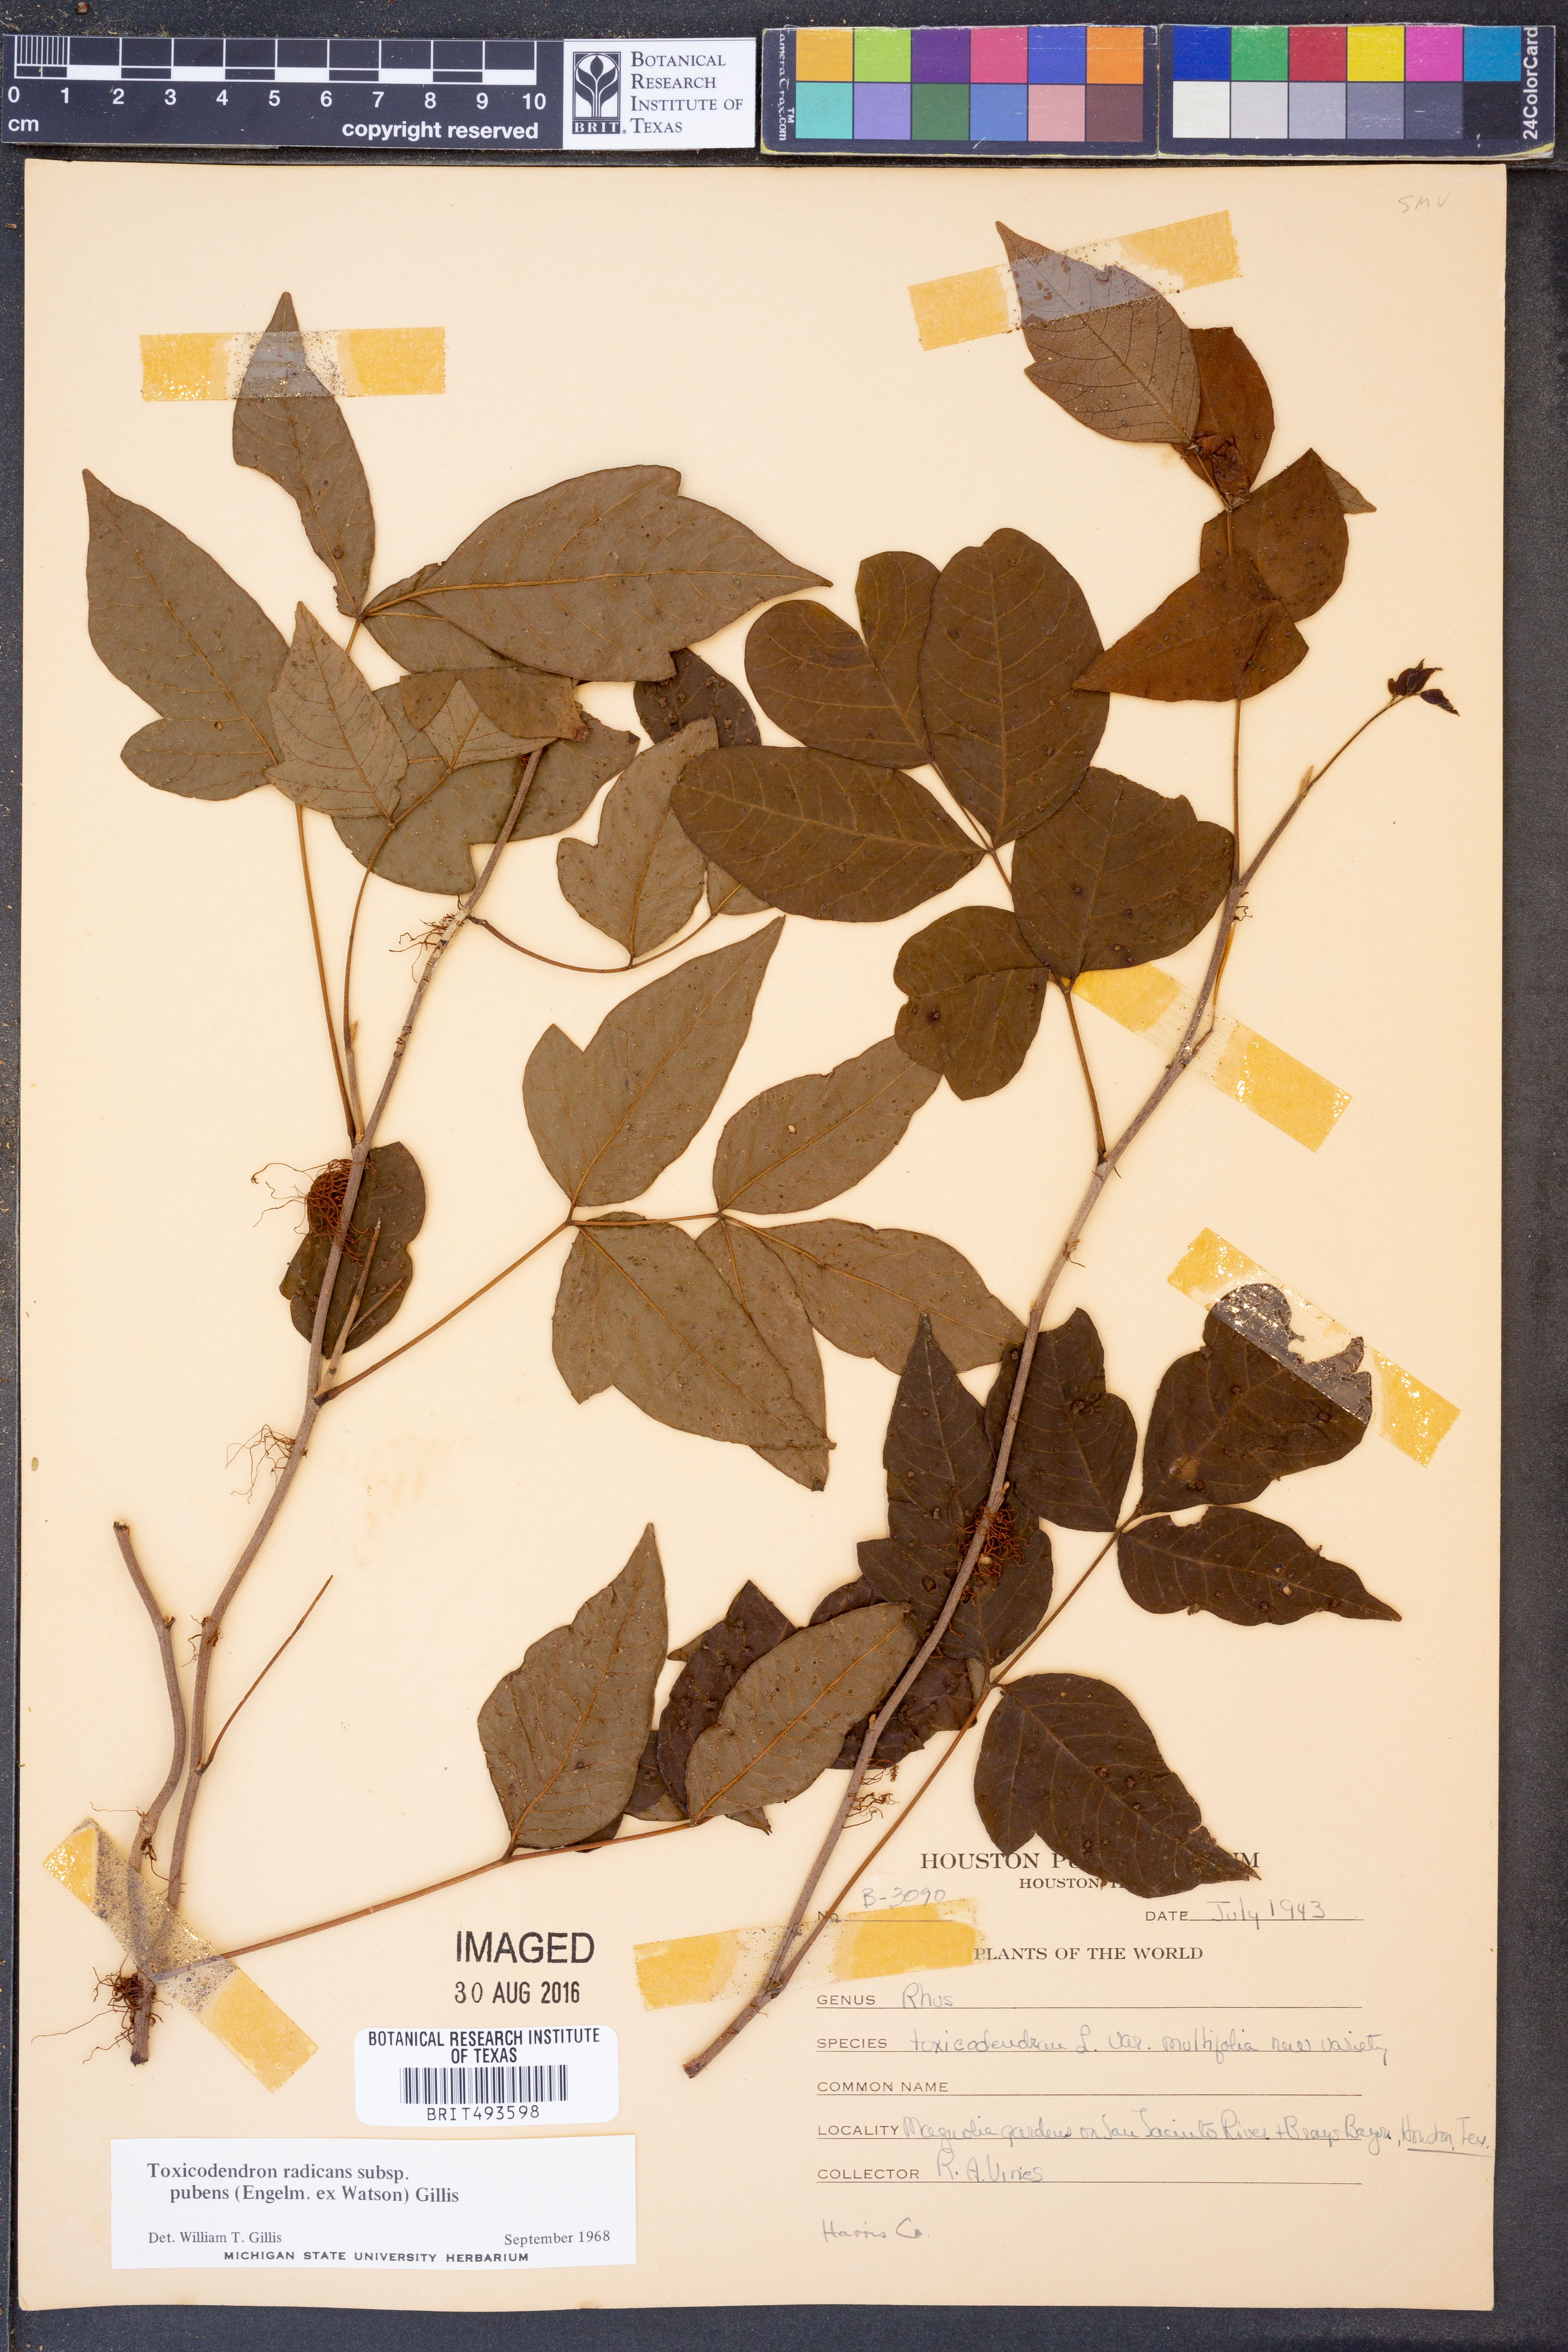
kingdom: Plantae
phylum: Tracheophyta
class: Magnoliopsida
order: Sapindales
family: Anacardiaceae
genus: Toxicodendron
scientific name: Toxicodendron radicans
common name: Poison ivy
